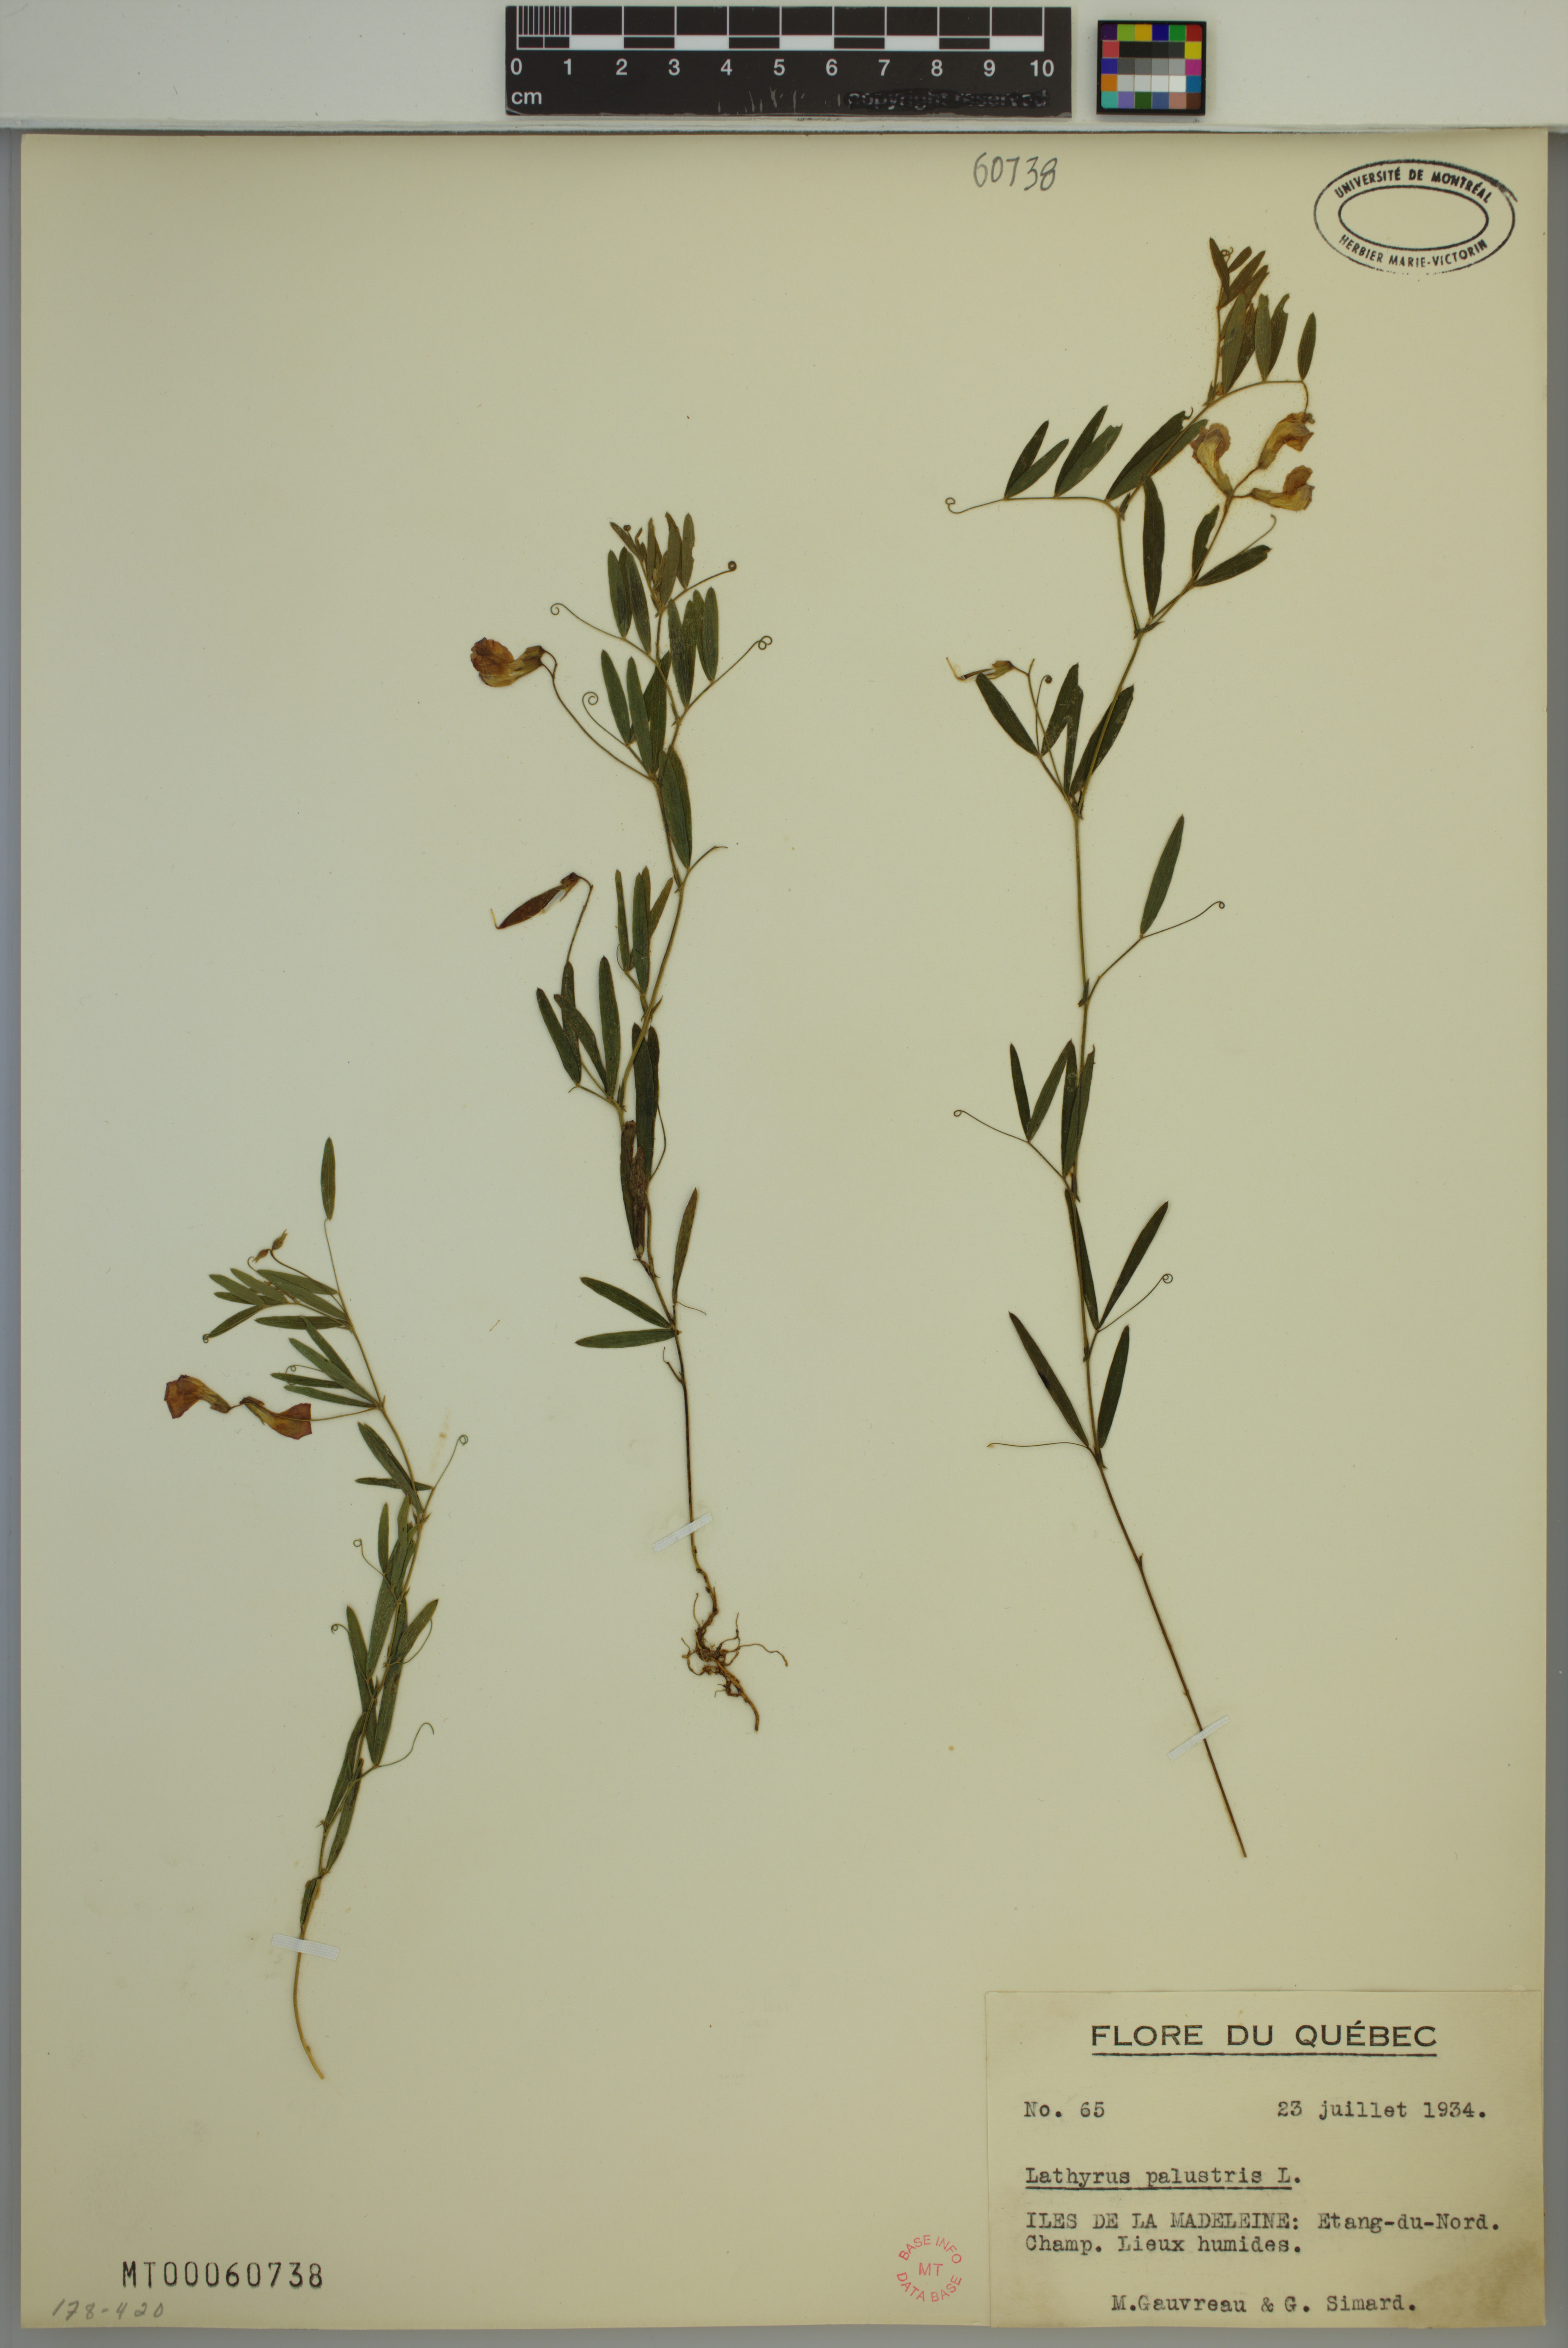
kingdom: Plantae
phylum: Tracheophyta
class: Magnoliopsida
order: Fabales
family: Fabaceae
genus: Lathyrus
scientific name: Lathyrus palustris
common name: Marsh pea
